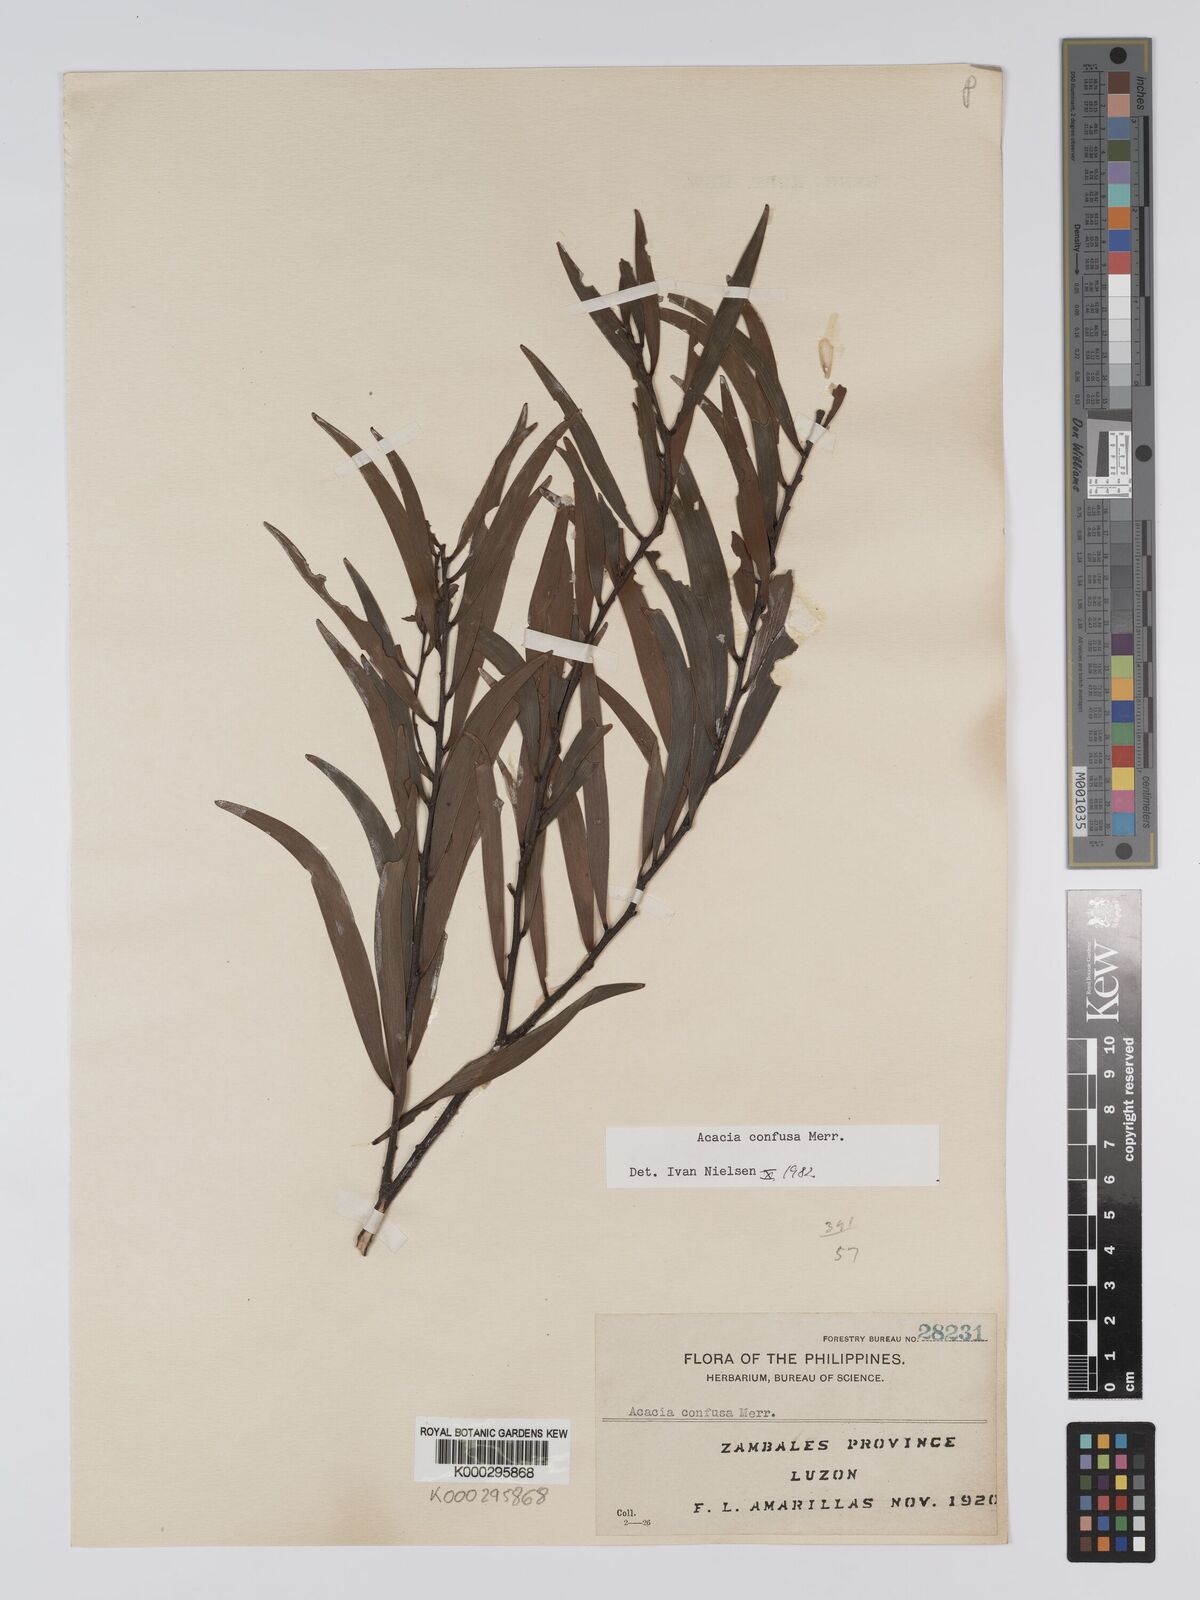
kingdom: Plantae
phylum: Tracheophyta
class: Magnoliopsida
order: Fabales
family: Fabaceae
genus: Acacia
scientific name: Acacia confusa
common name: Formosan koa
